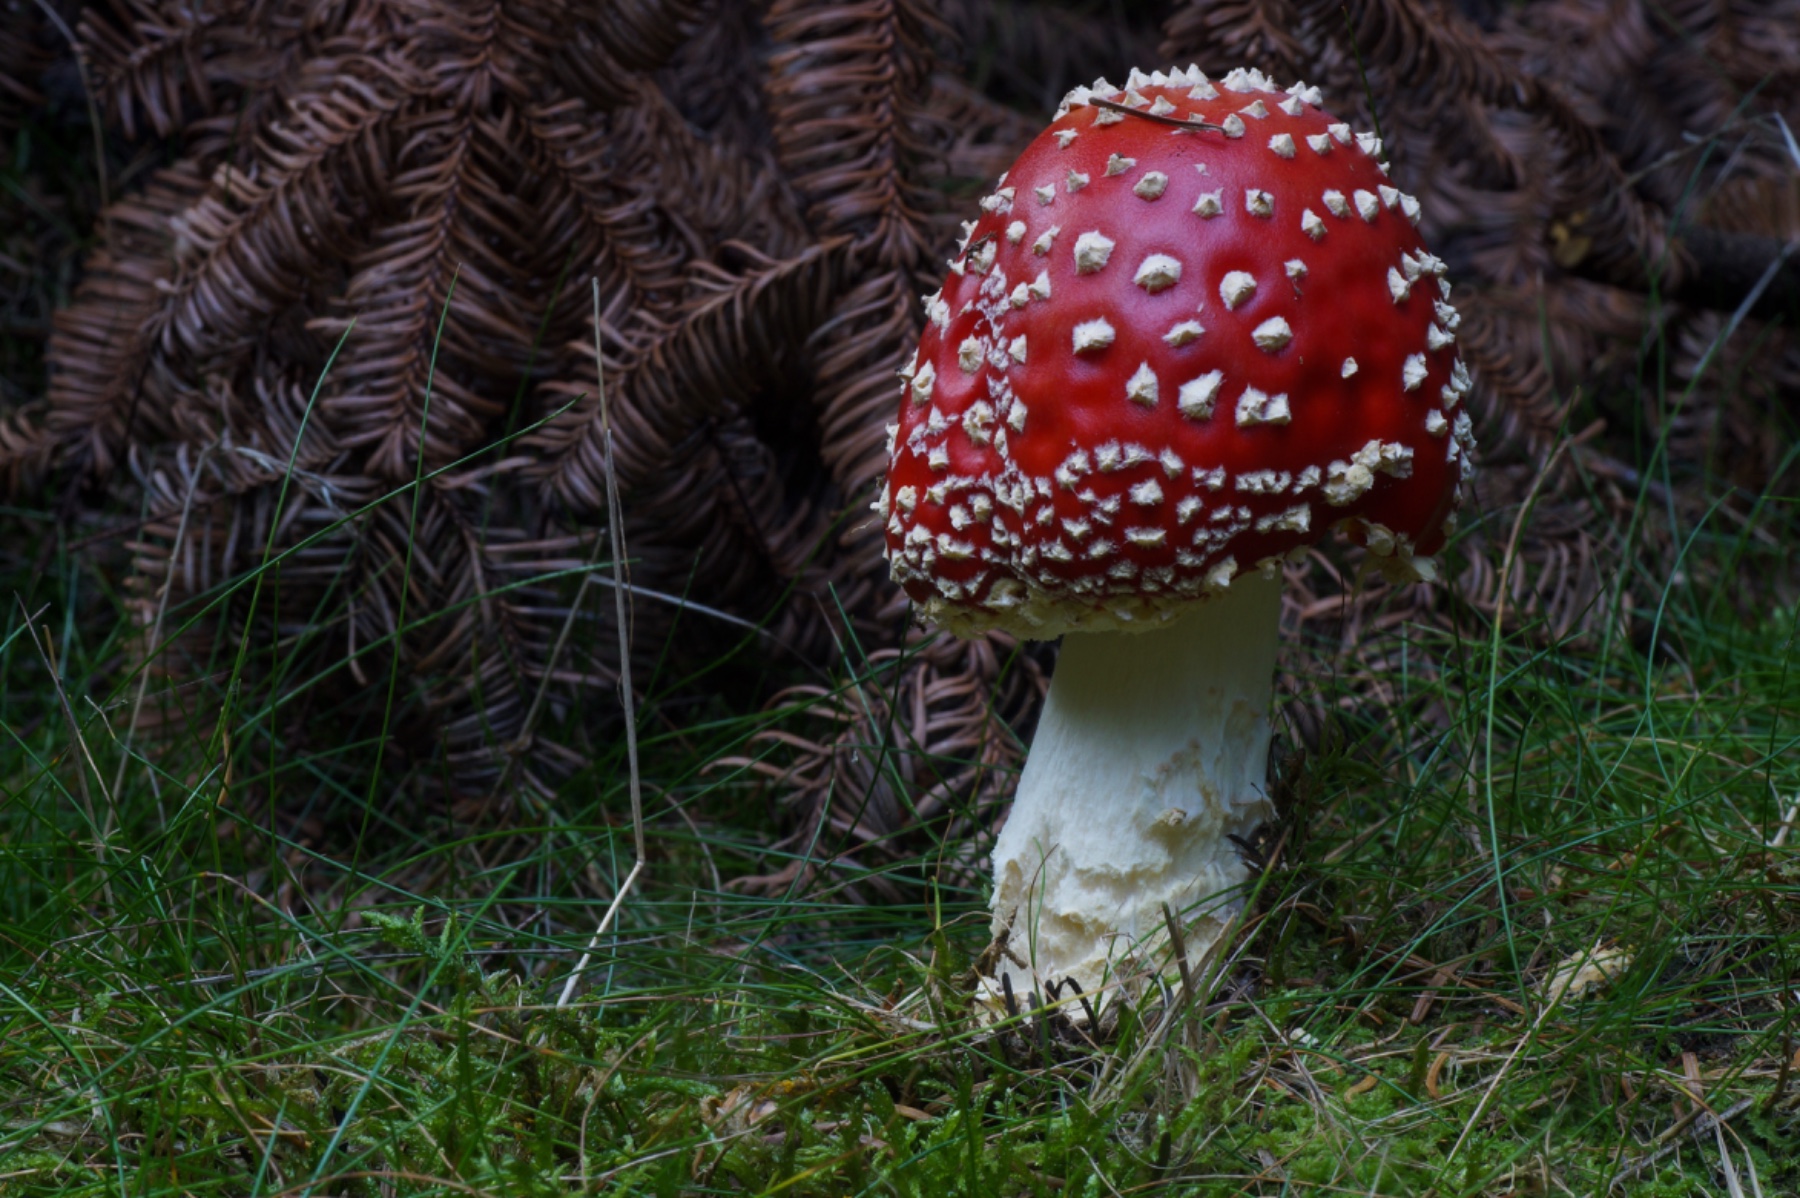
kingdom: Fungi
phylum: Basidiomycota
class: Agaricomycetes
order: Agaricales
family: Amanitaceae
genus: Amanita
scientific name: Amanita muscaria
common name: rød fluesvamp
